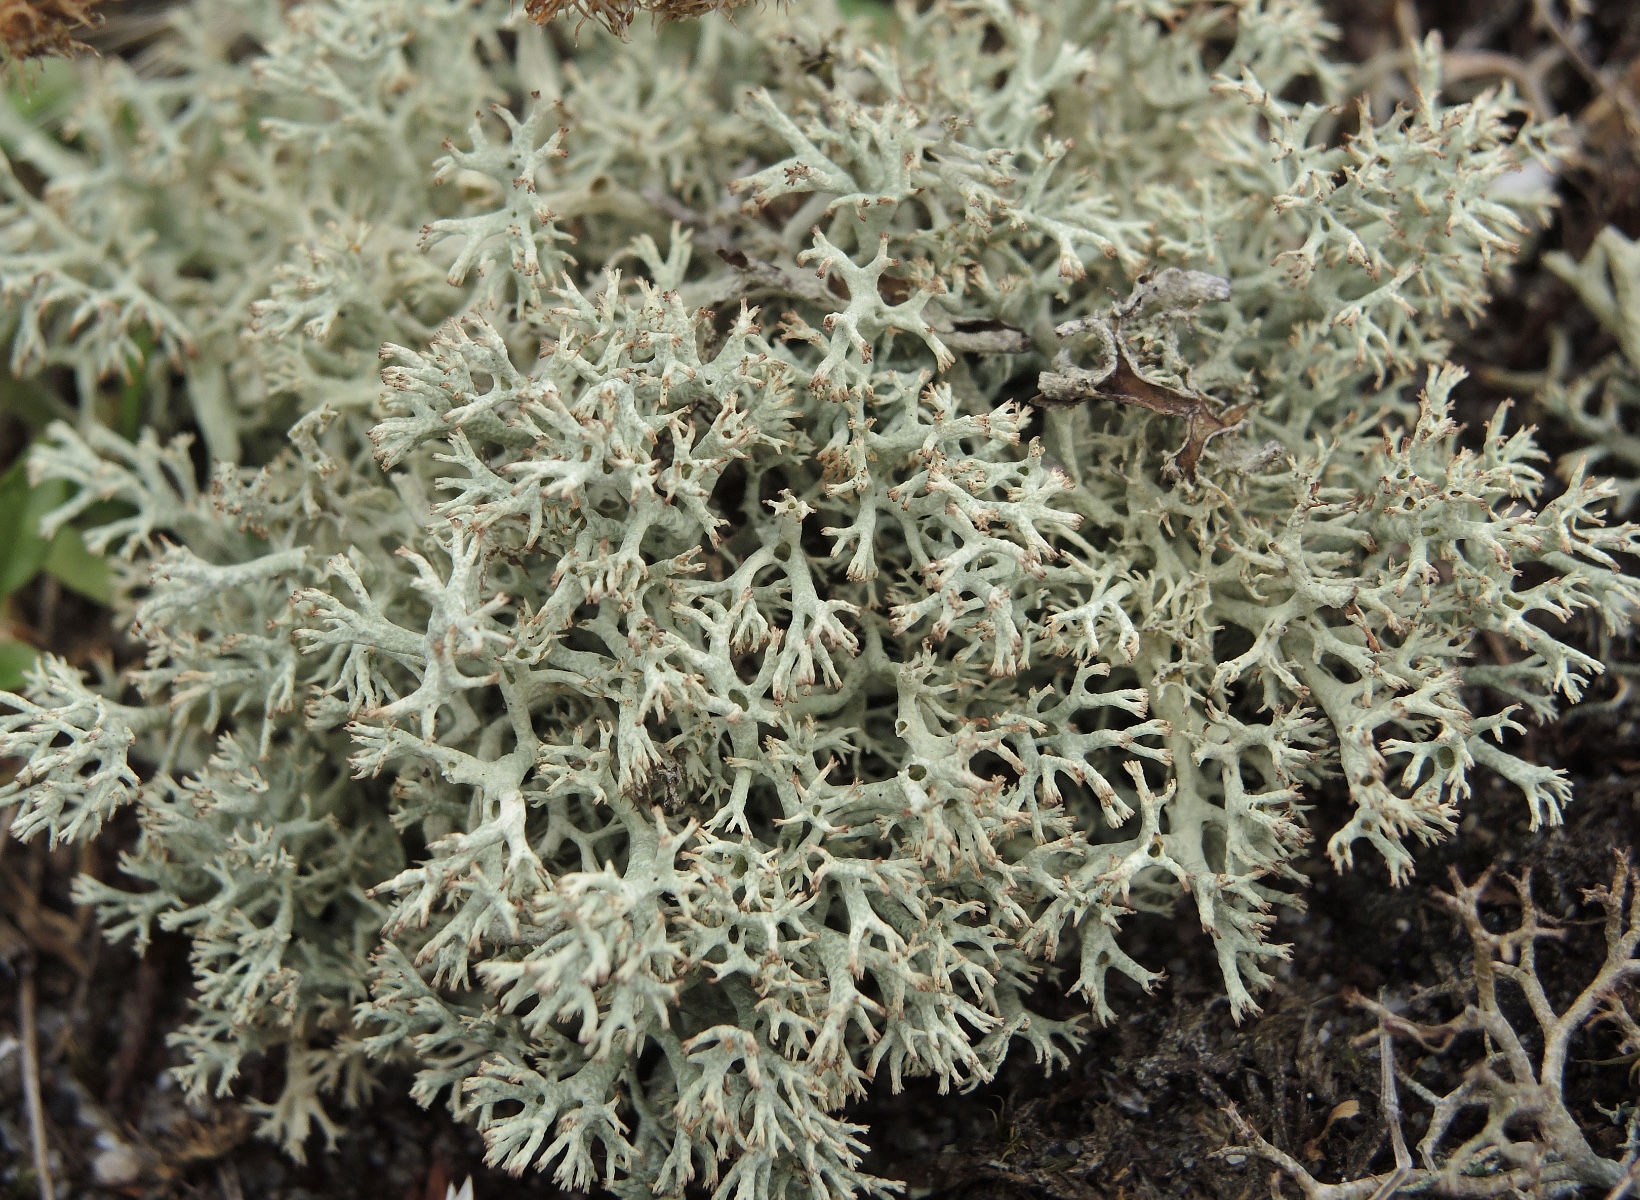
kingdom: Fungi
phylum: Ascomycota
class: Lecanoromycetes
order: Lecanorales
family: Cladoniaceae
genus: Cladonia
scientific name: Cladonia
